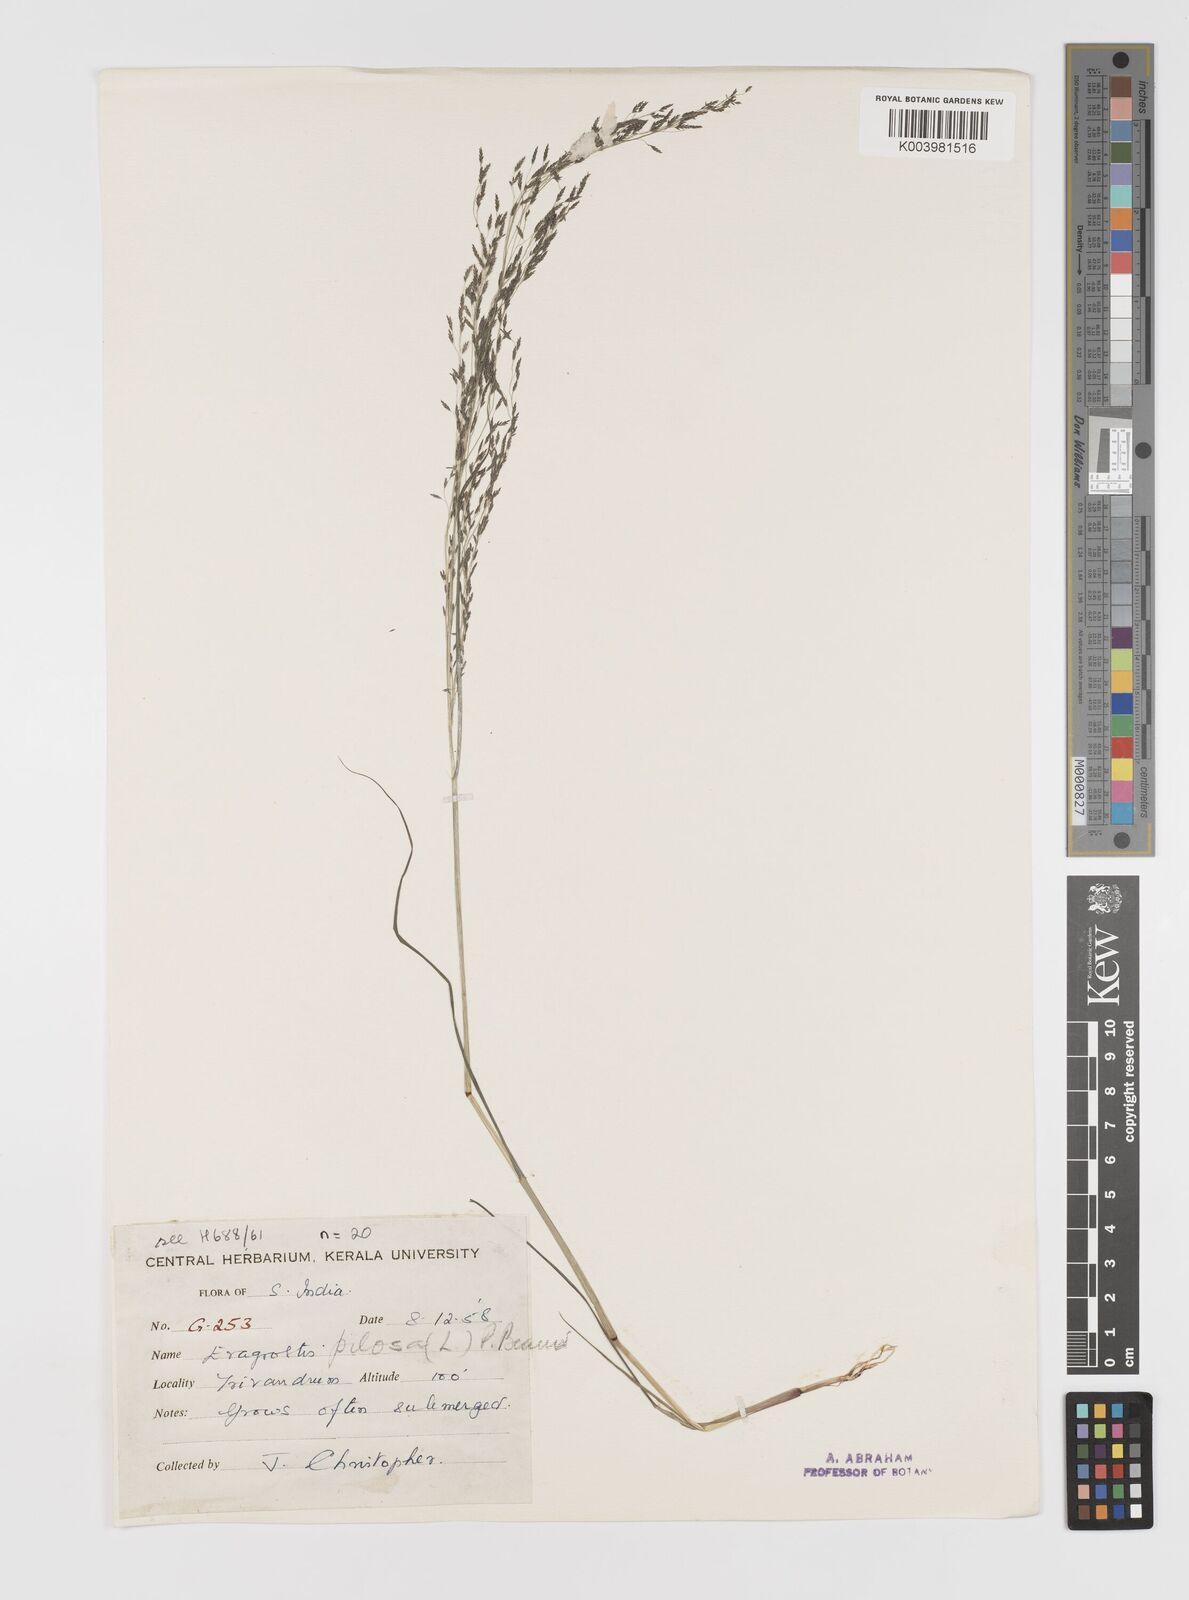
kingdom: Plantae
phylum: Tracheophyta
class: Liliopsida
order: Poales
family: Poaceae
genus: Eragrostis
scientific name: Eragrostis pilosa
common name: Indian lovegrass
